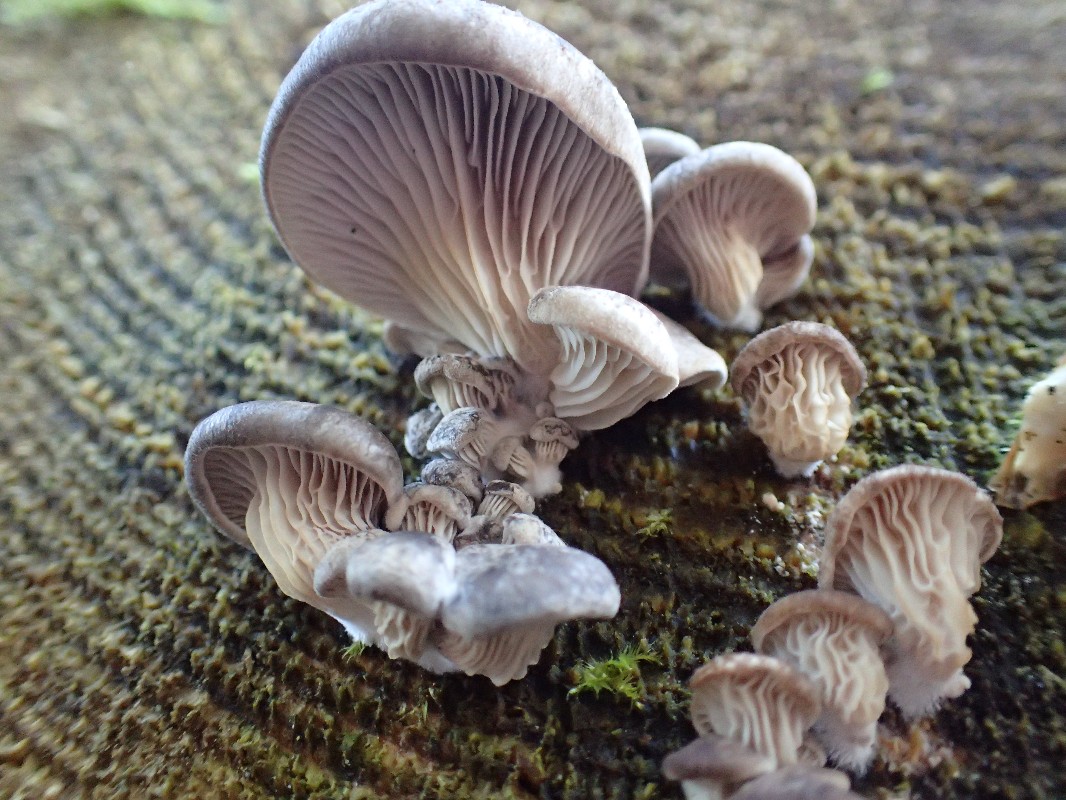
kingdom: Fungi
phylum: Basidiomycota
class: Agaricomycetes
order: Agaricales
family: Pleurotaceae
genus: Pleurotus
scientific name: Pleurotus ostreatus
